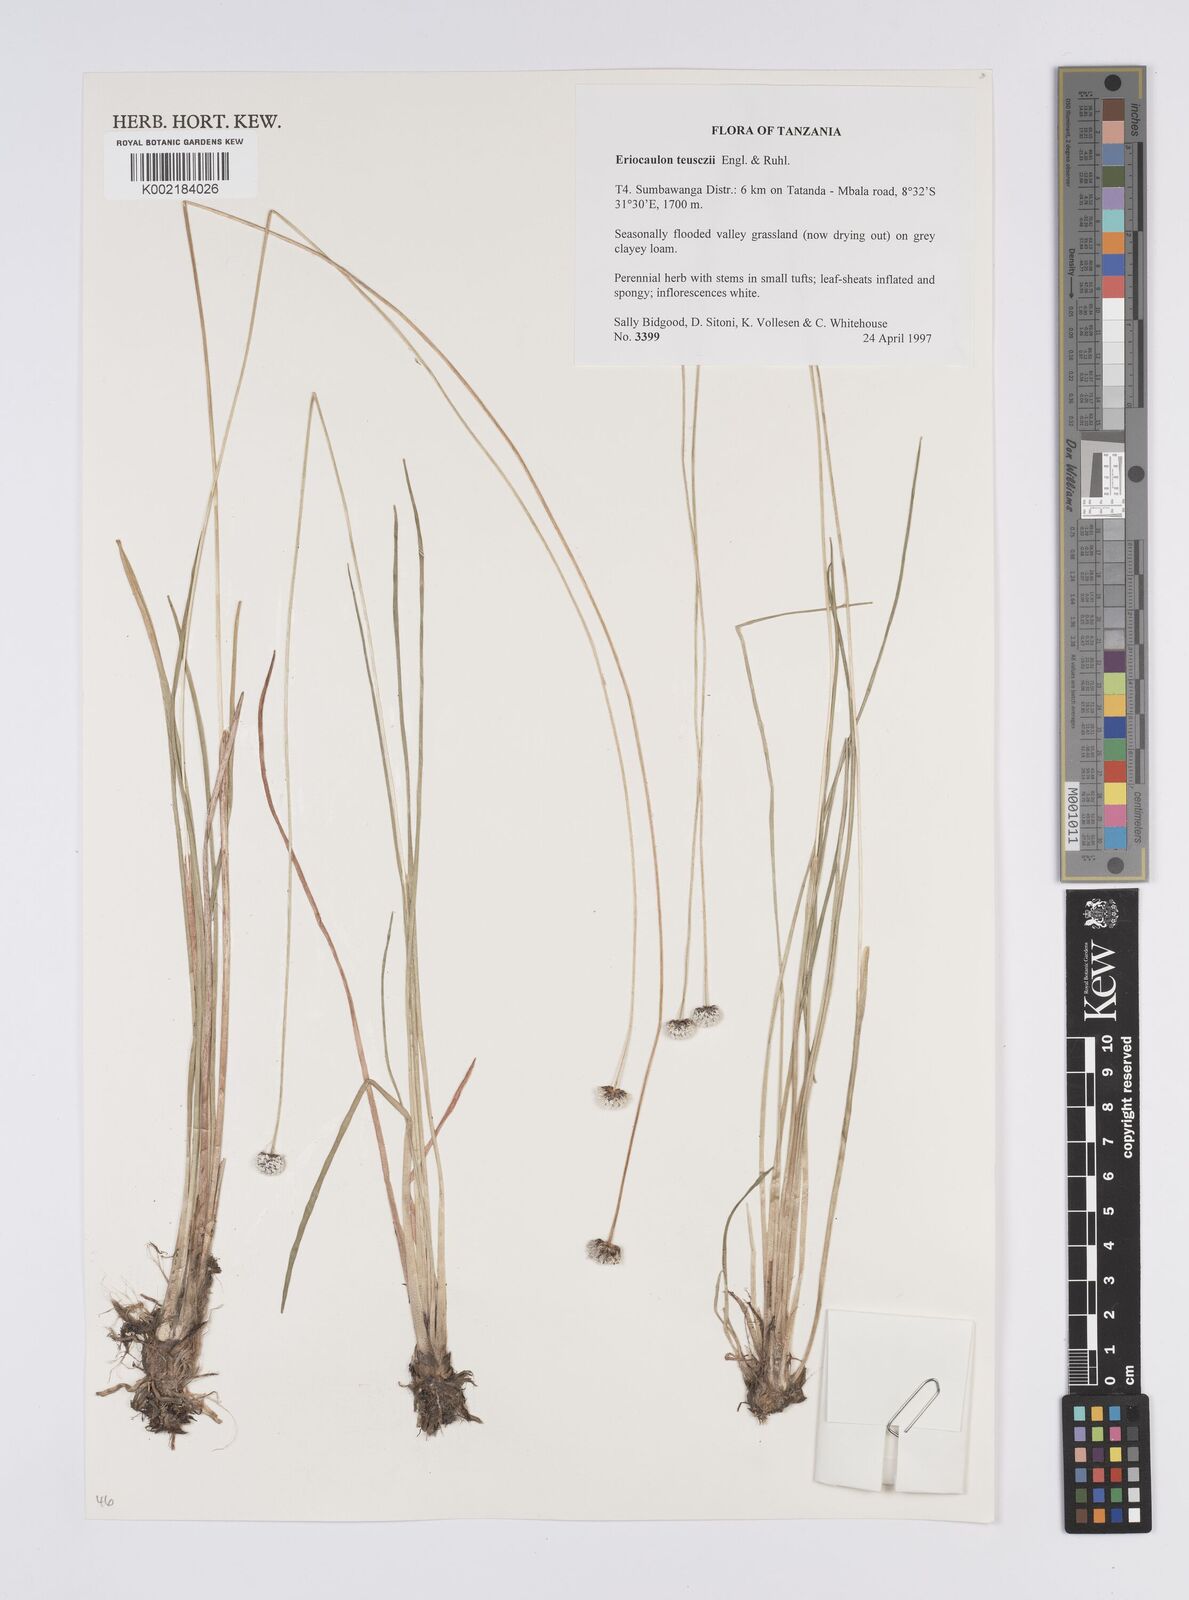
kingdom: Plantae
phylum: Tracheophyta
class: Liliopsida
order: Poales
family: Eriocaulaceae
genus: Eriocaulon
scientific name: Eriocaulon teusczii
